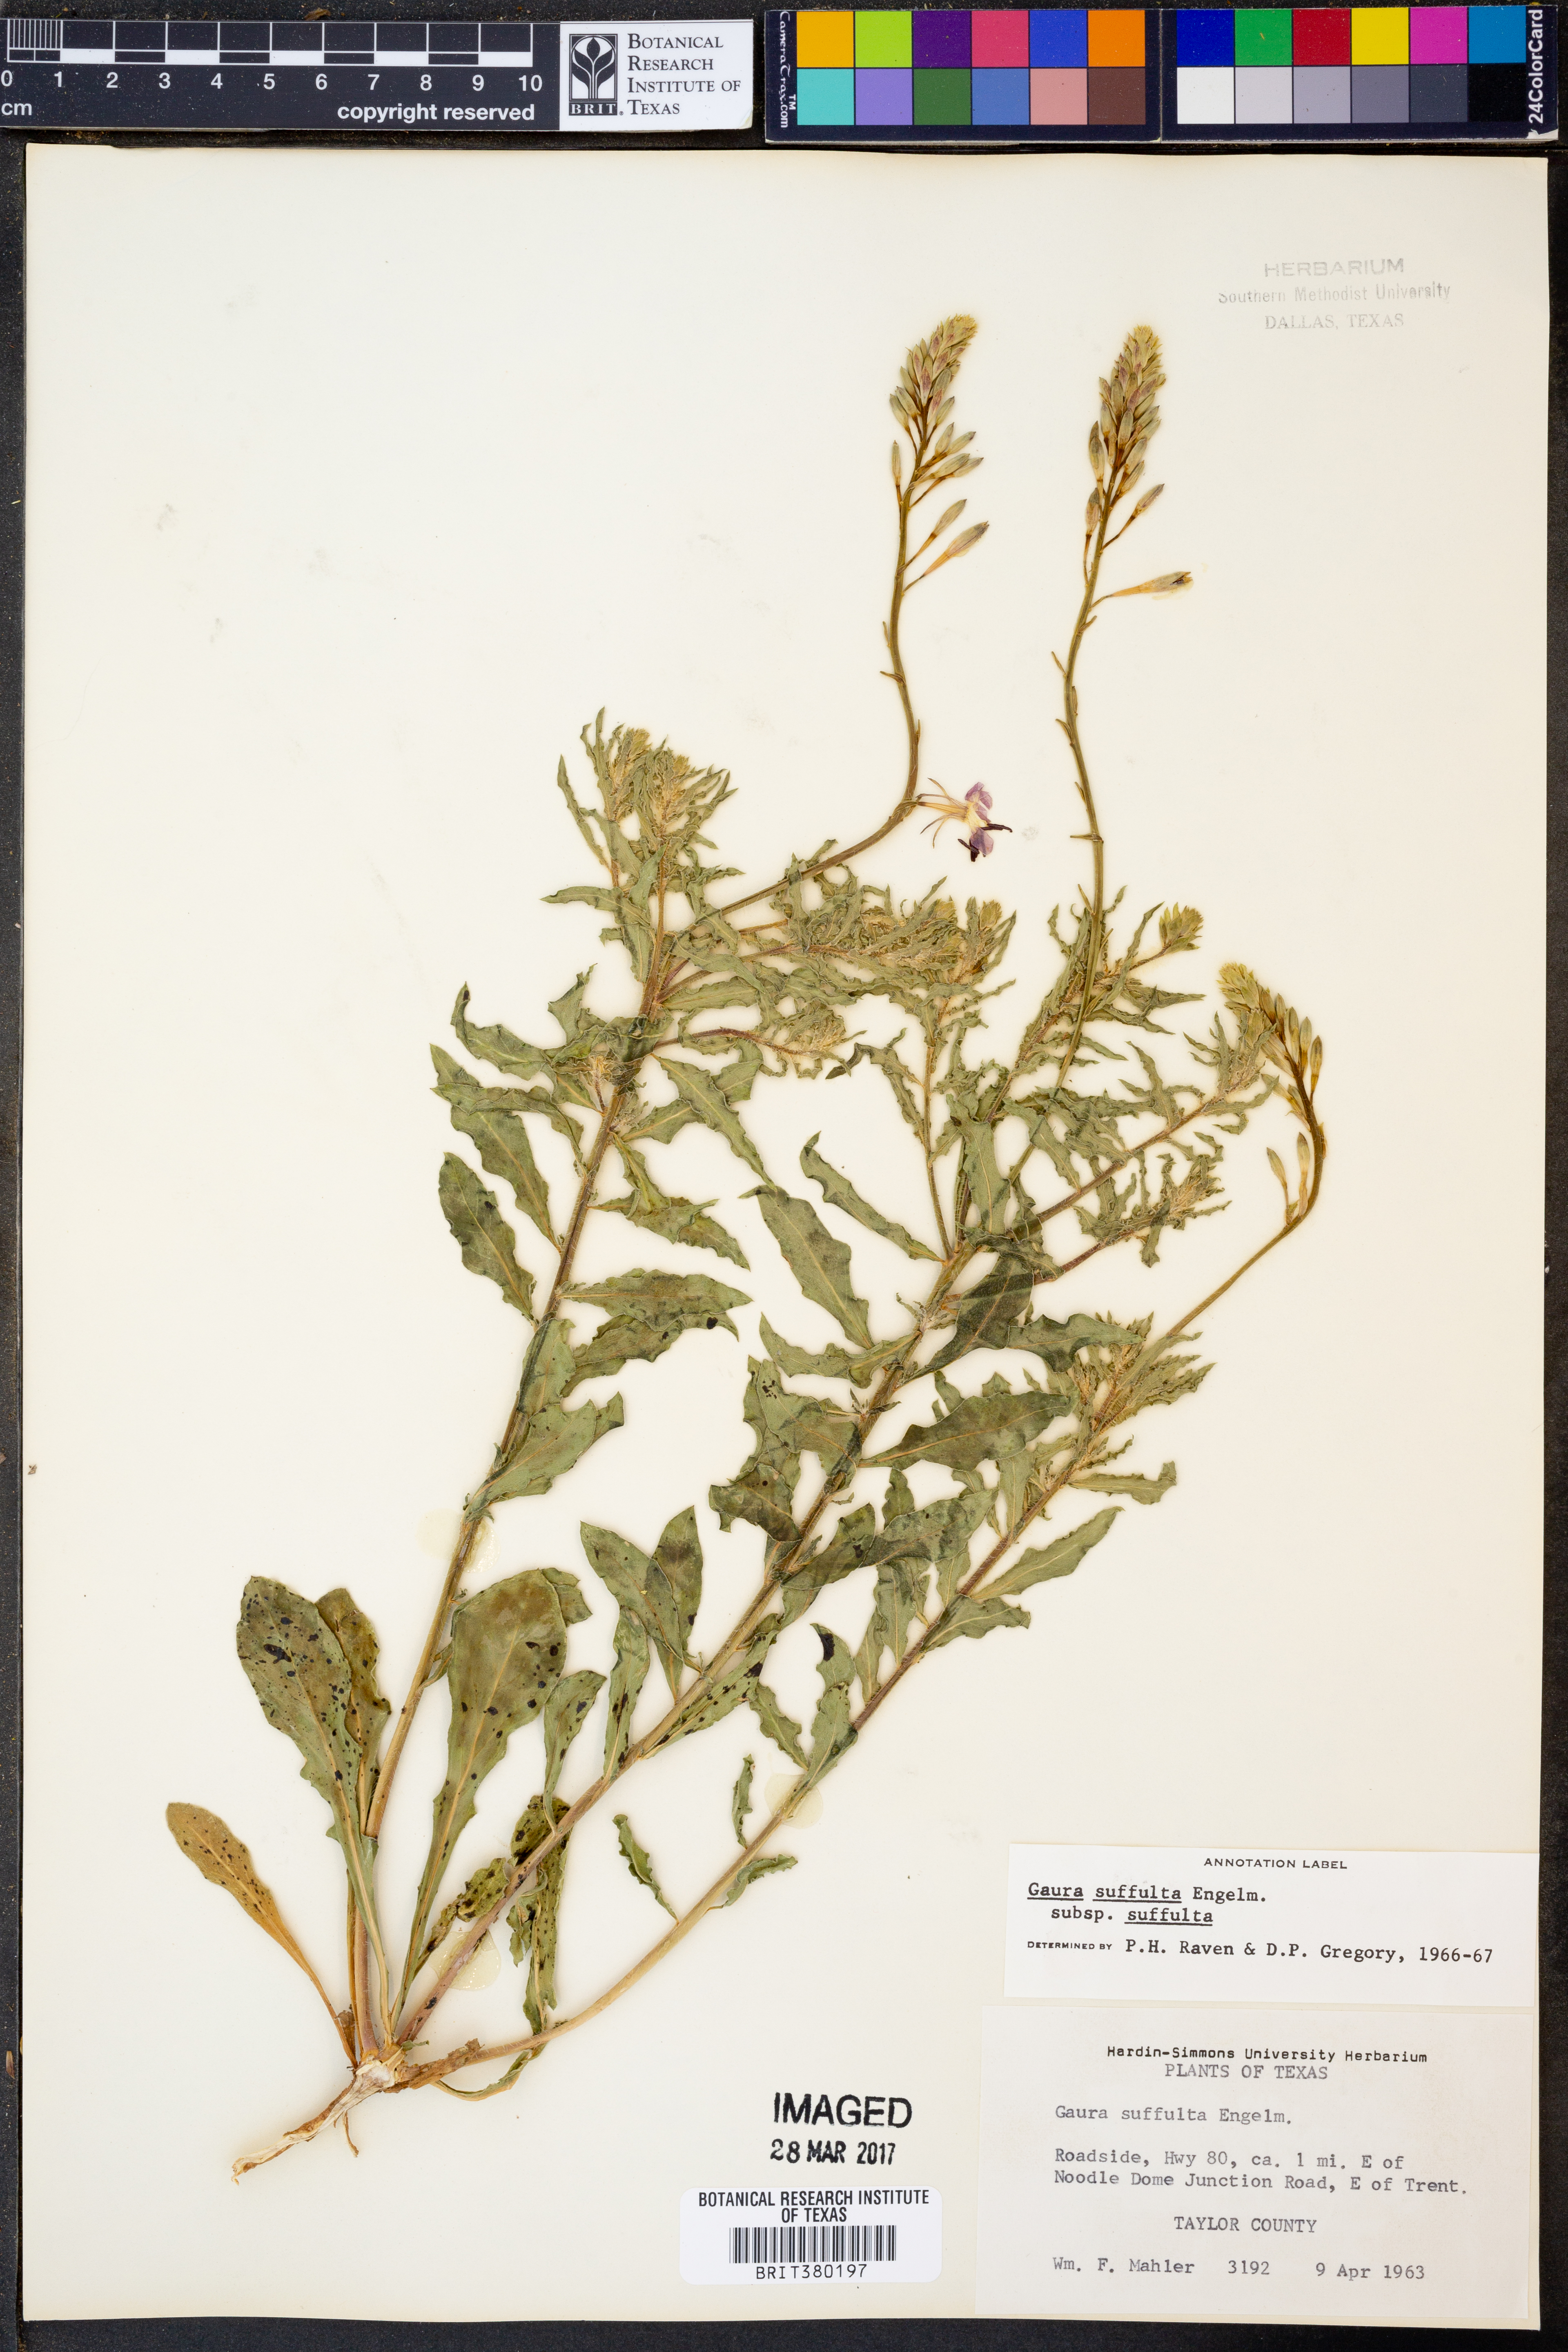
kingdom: Plantae
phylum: Tracheophyta
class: Magnoliopsida
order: Myrtales
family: Onagraceae
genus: Oenothera
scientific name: Oenothera suffulta
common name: Kisses
